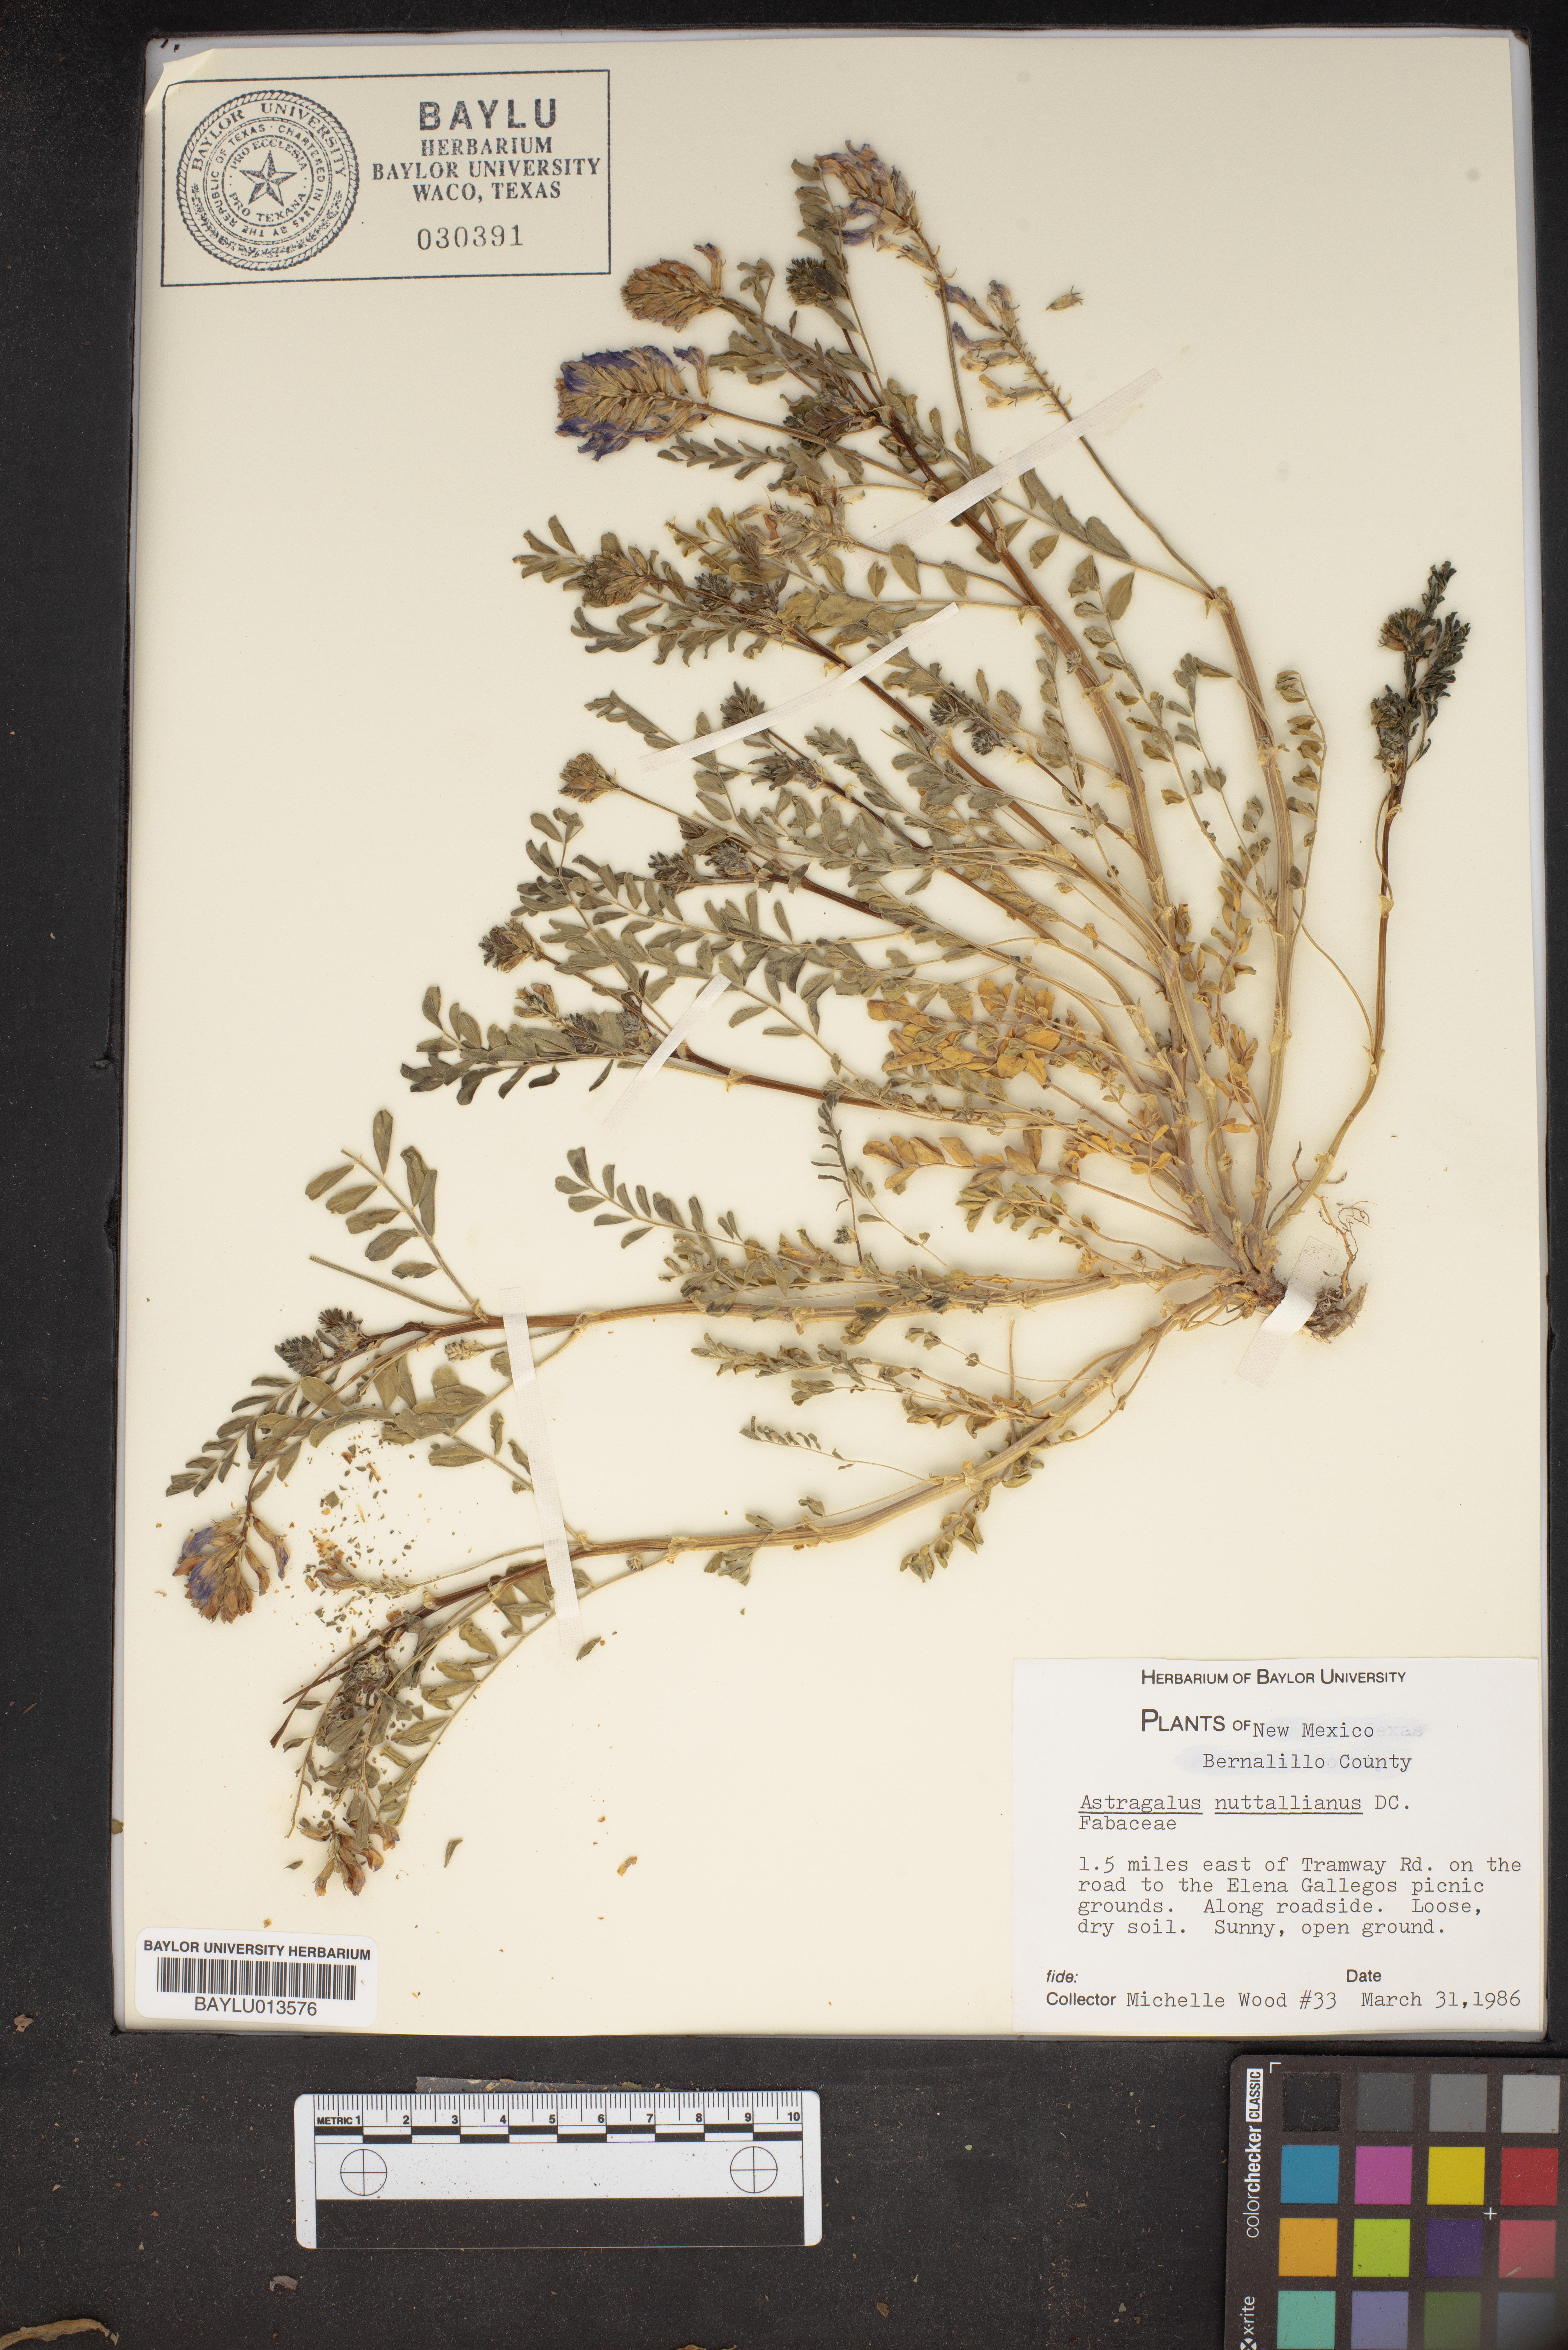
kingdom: Plantae
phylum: Tracheophyta
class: Magnoliopsida
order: Fabales
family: Fabaceae
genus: Astragalus
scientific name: Astragalus nuttallianus
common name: Smallflowered milkvetch
